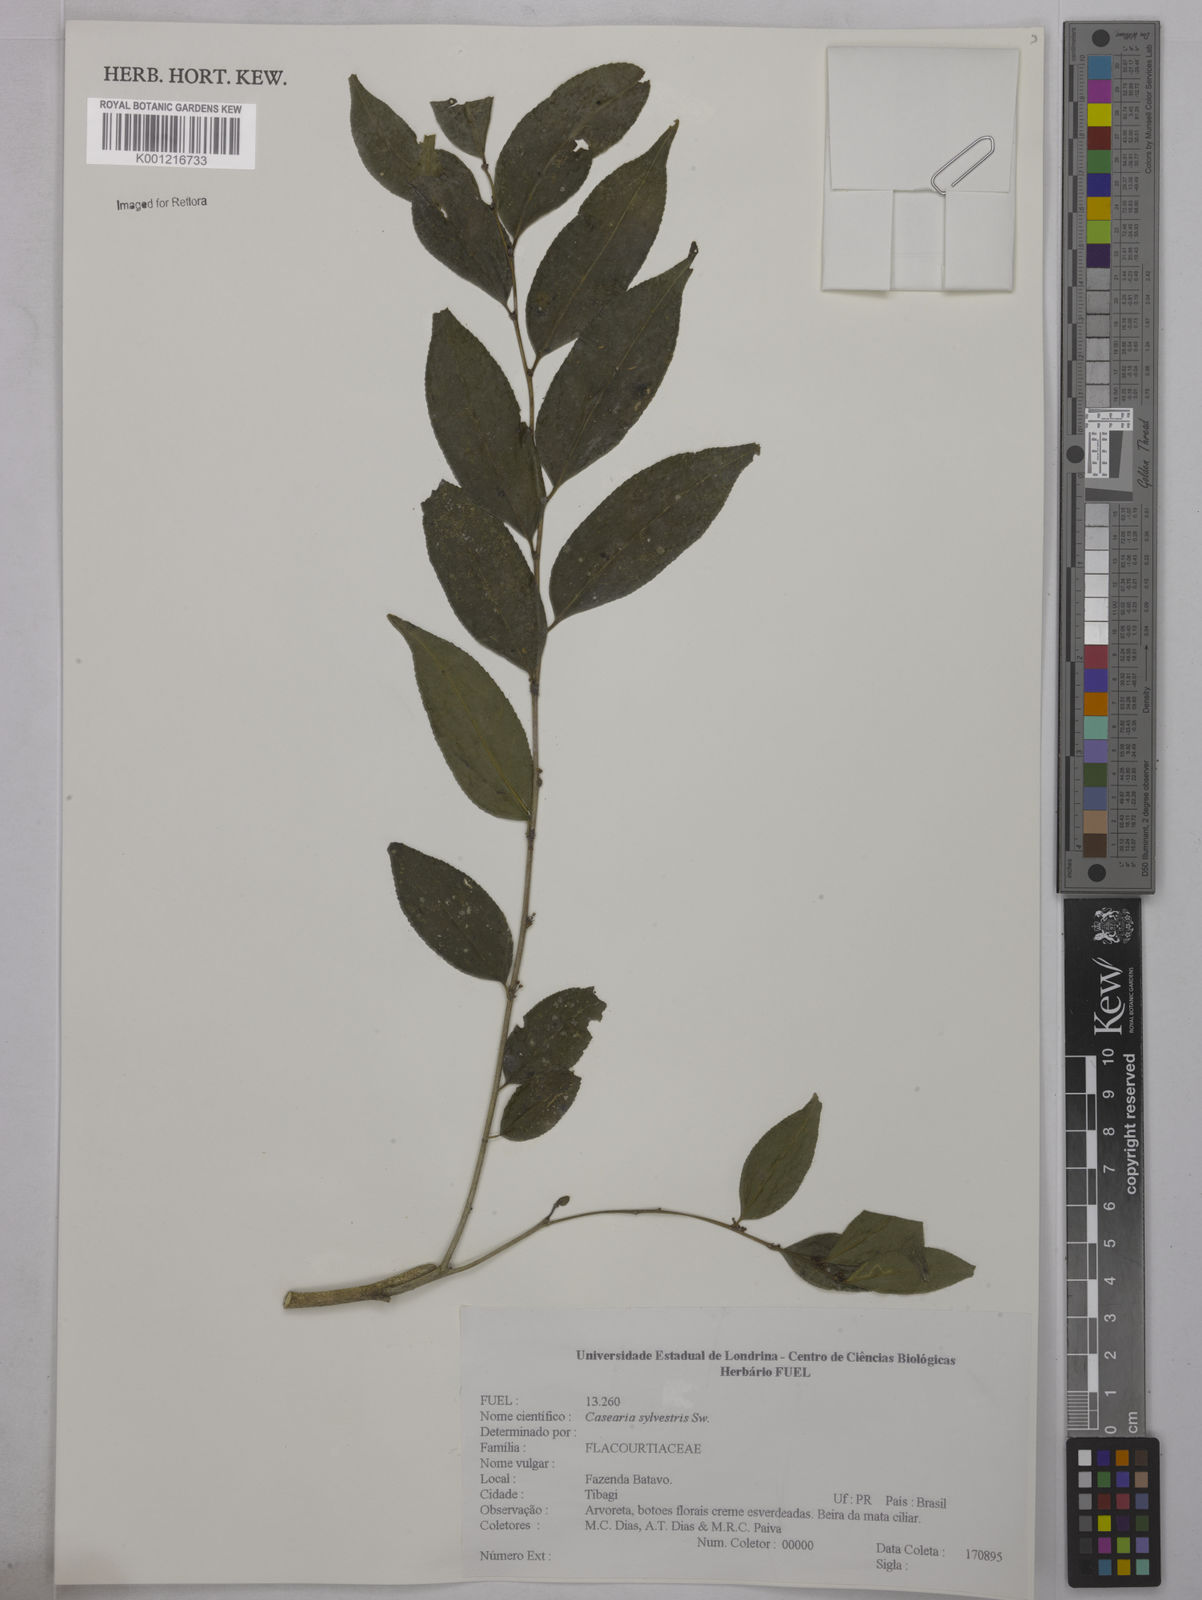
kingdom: Plantae
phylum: Tracheophyta
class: Magnoliopsida
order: Malpighiales
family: Salicaceae
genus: Casearia
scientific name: Casearia sylvestris
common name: Wild sage
